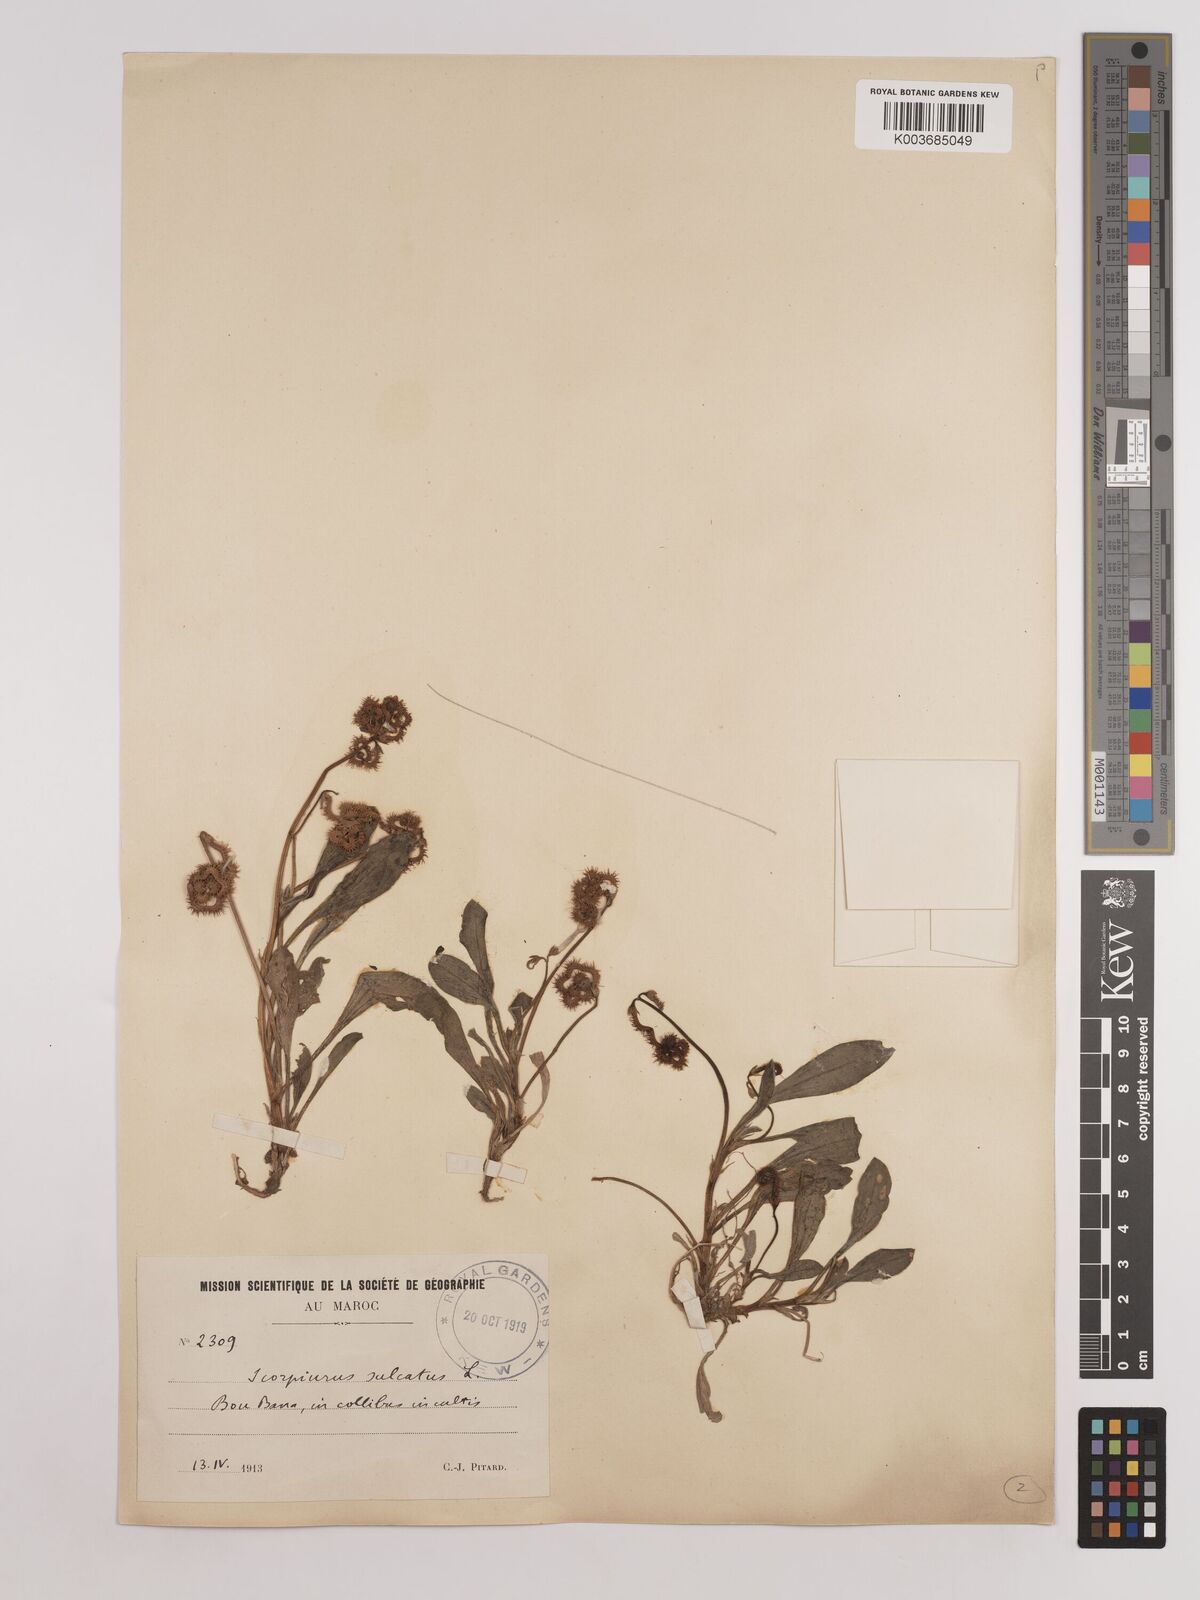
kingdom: Plantae
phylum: Tracheophyta
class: Magnoliopsida
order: Fabales
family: Fabaceae
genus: Scorpiurus
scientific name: Scorpiurus muricatus
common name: Caterpillar-plant
